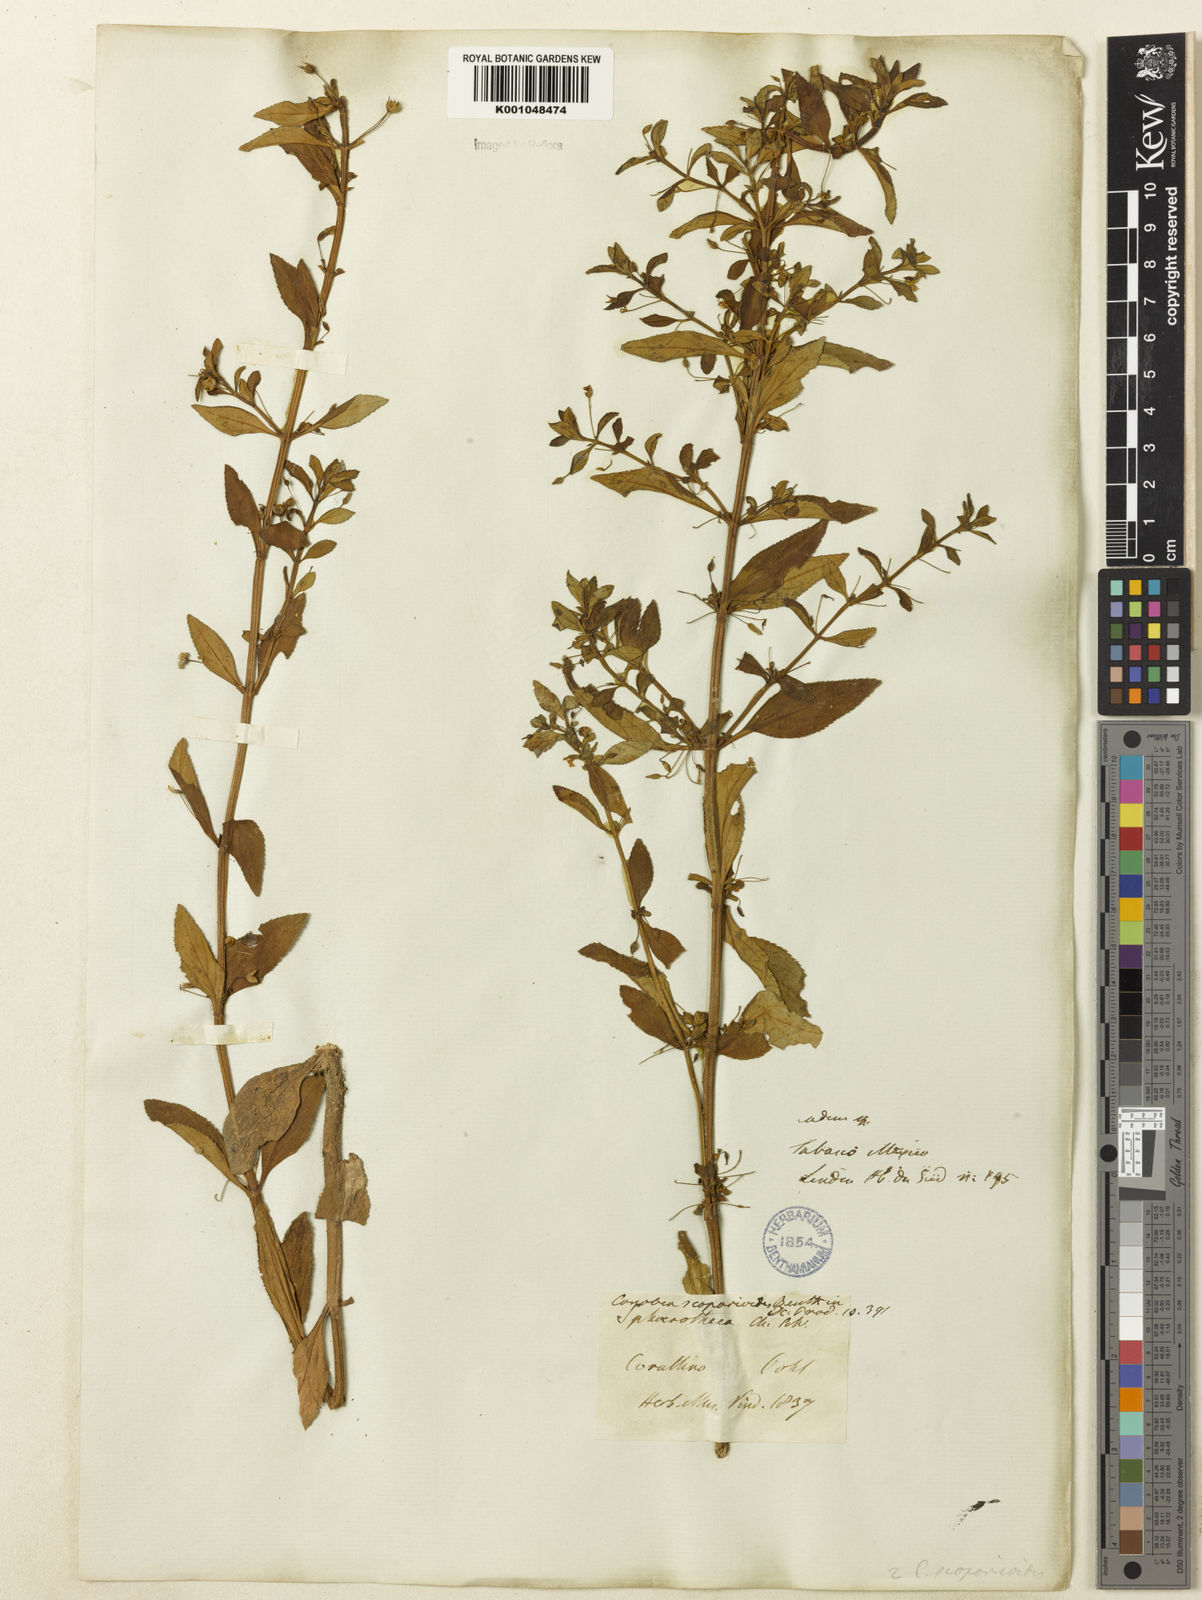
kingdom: Plantae
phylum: Tracheophyta
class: Magnoliopsida
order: Lamiales
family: Plantaginaceae
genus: Conobea
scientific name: Conobea scoparioides
